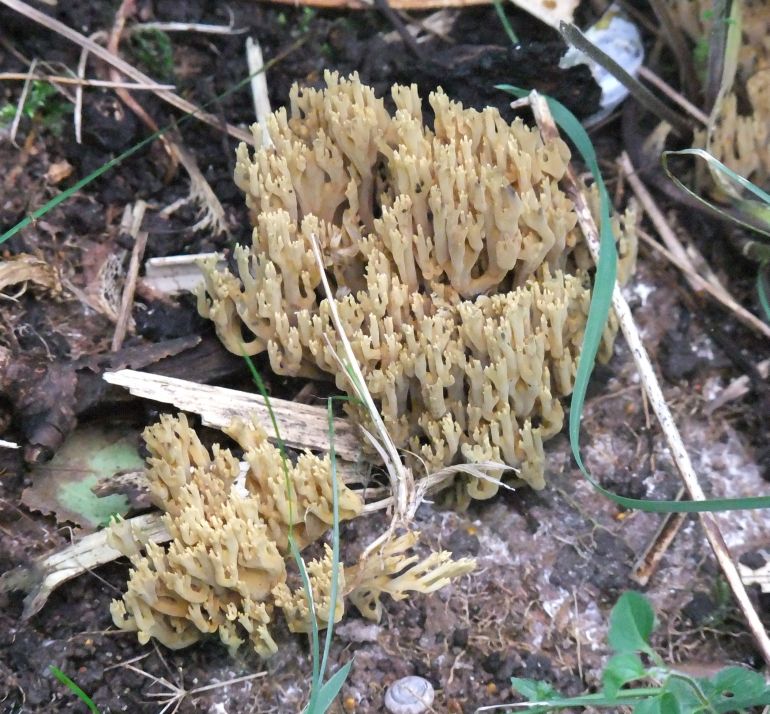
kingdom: Fungi
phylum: Basidiomycota
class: Agaricomycetes
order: Gomphales
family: Gomphaceae
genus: Ramaria
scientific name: Ramaria stricta
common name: rank koralsvamp
